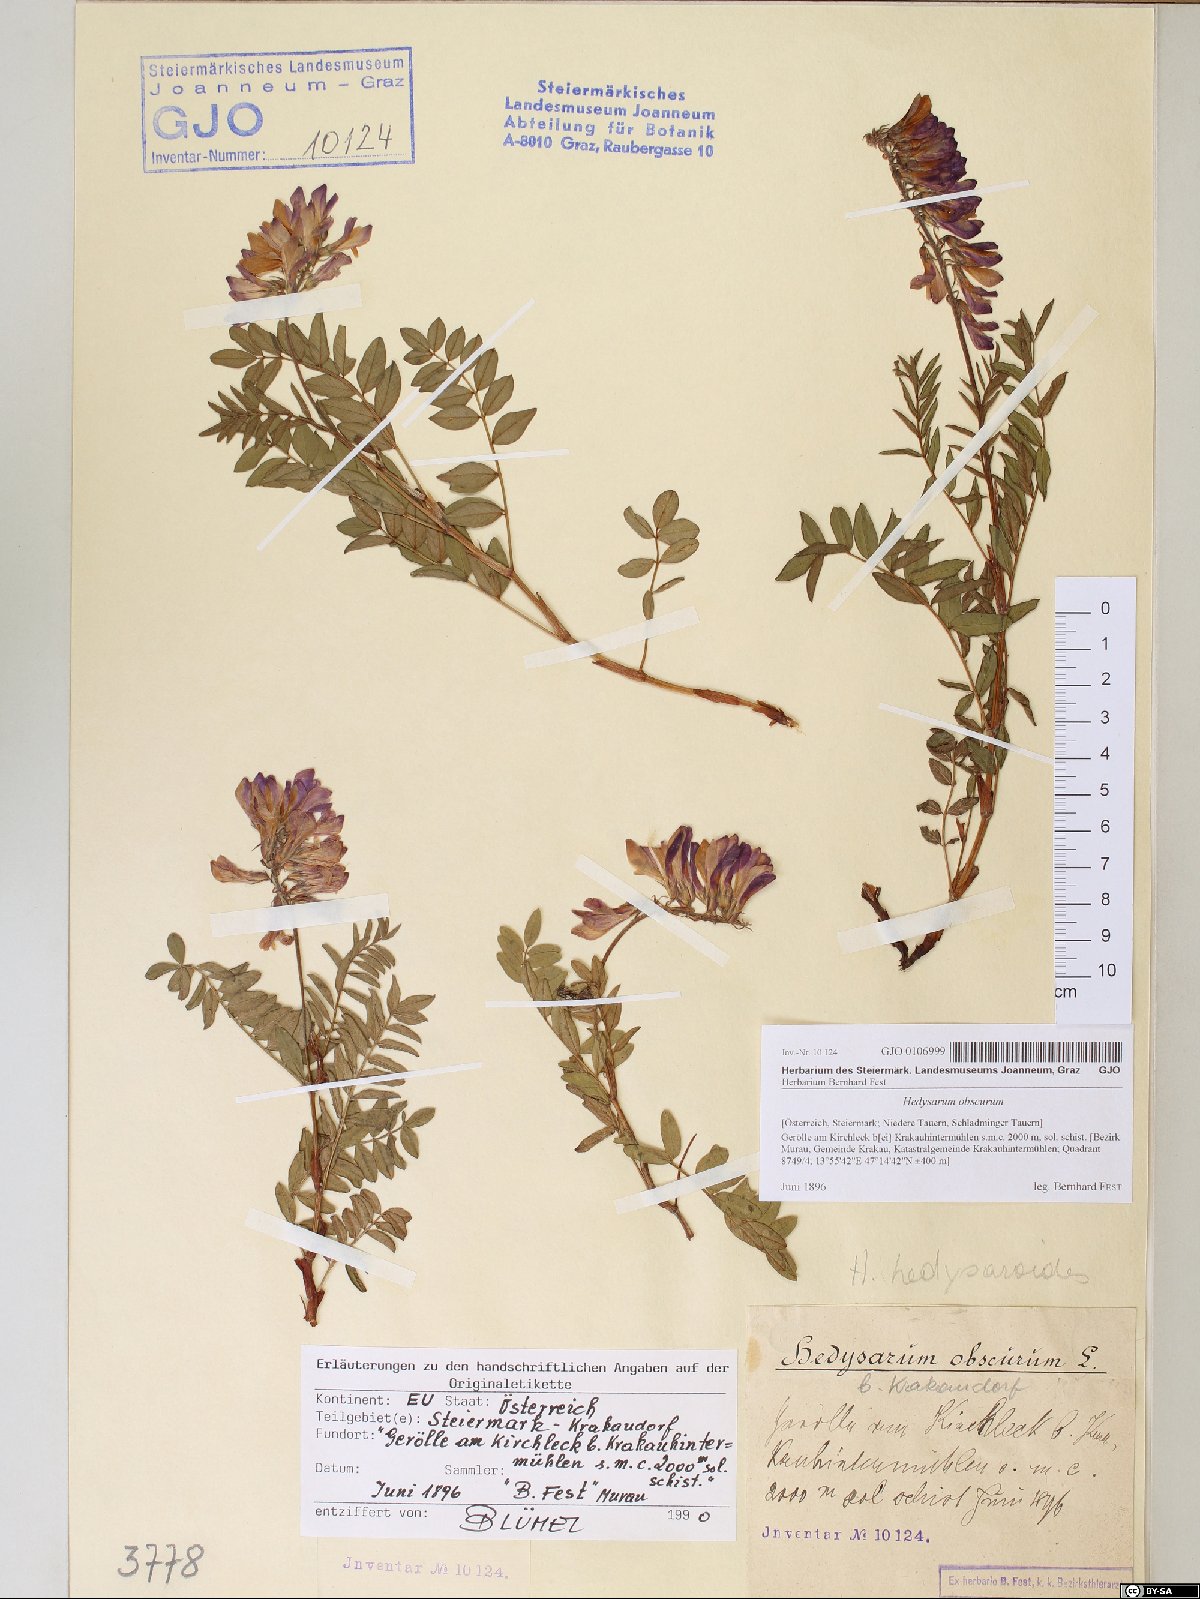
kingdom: Plantae
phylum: Tracheophyta
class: Magnoliopsida
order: Fabales
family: Fabaceae
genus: Hedysarum
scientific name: Hedysarum hedysaroides
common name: Alpine french-honeysuckle
